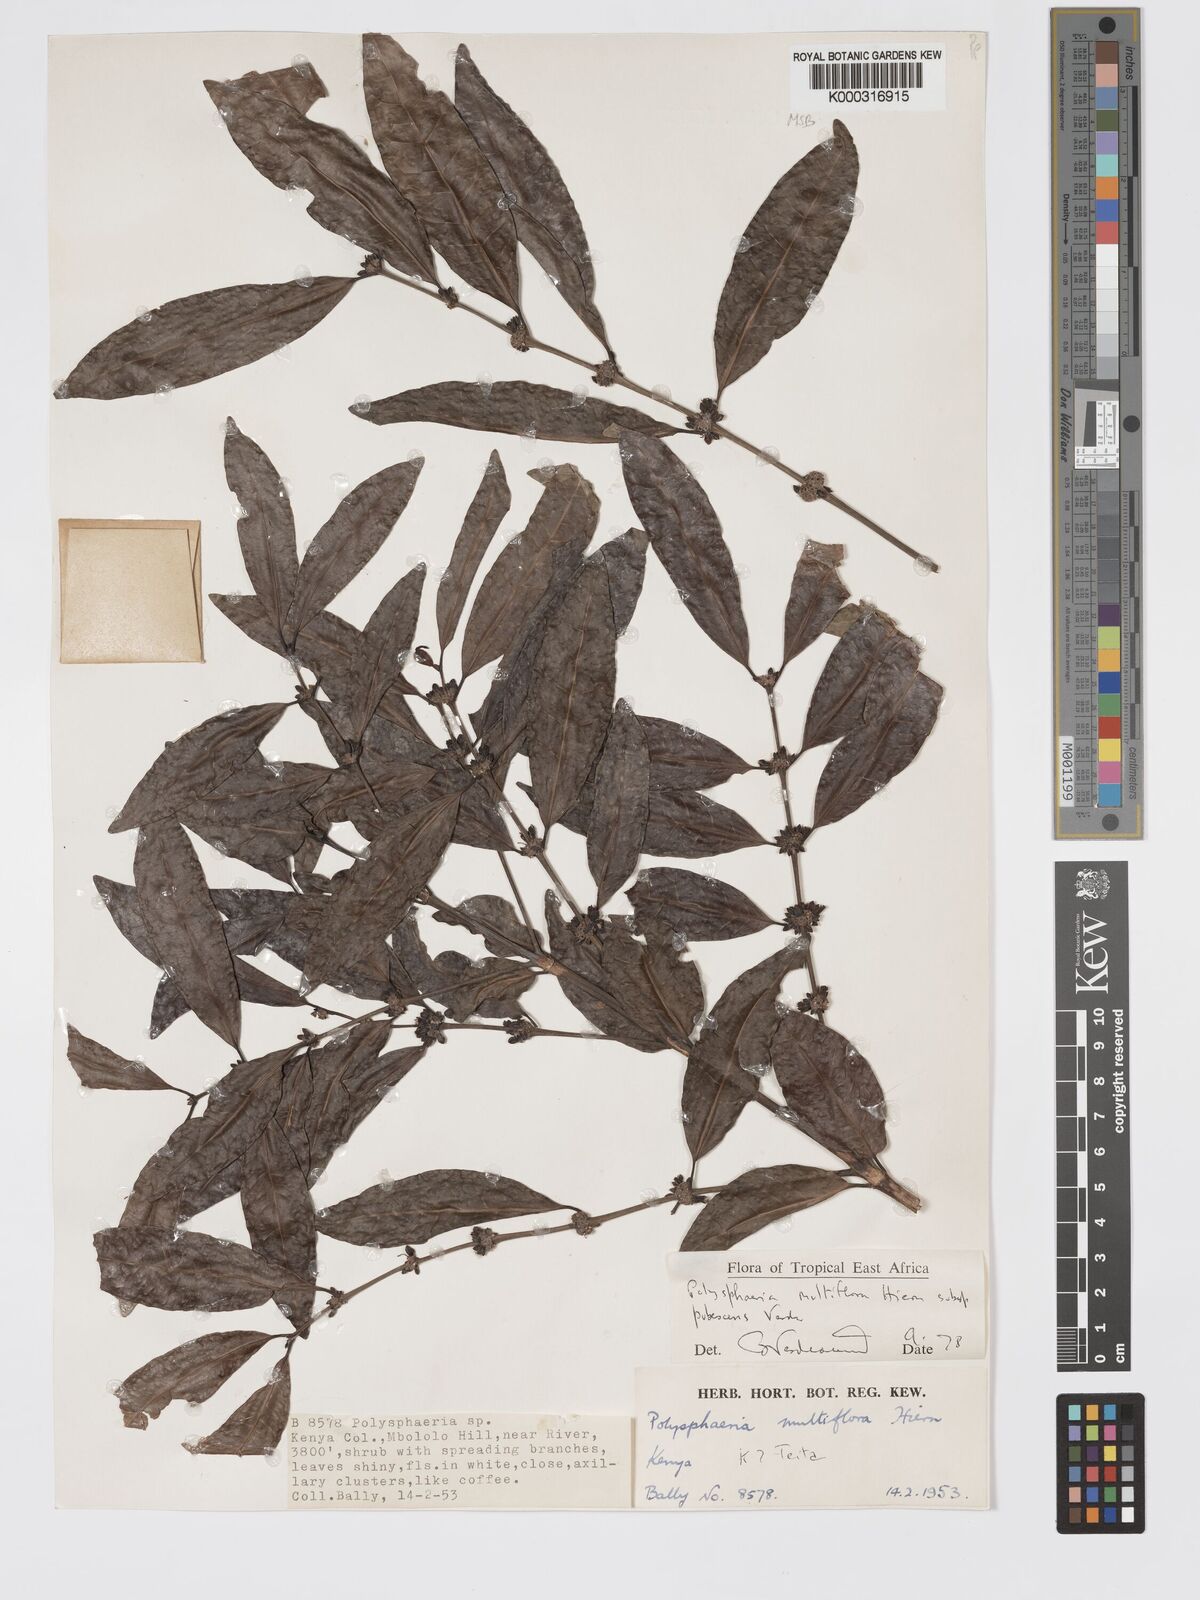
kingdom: Plantae
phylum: Tracheophyta
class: Magnoliopsida
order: Gentianales
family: Rubiaceae
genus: Polysphaeria
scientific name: Polysphaeria multiflora
